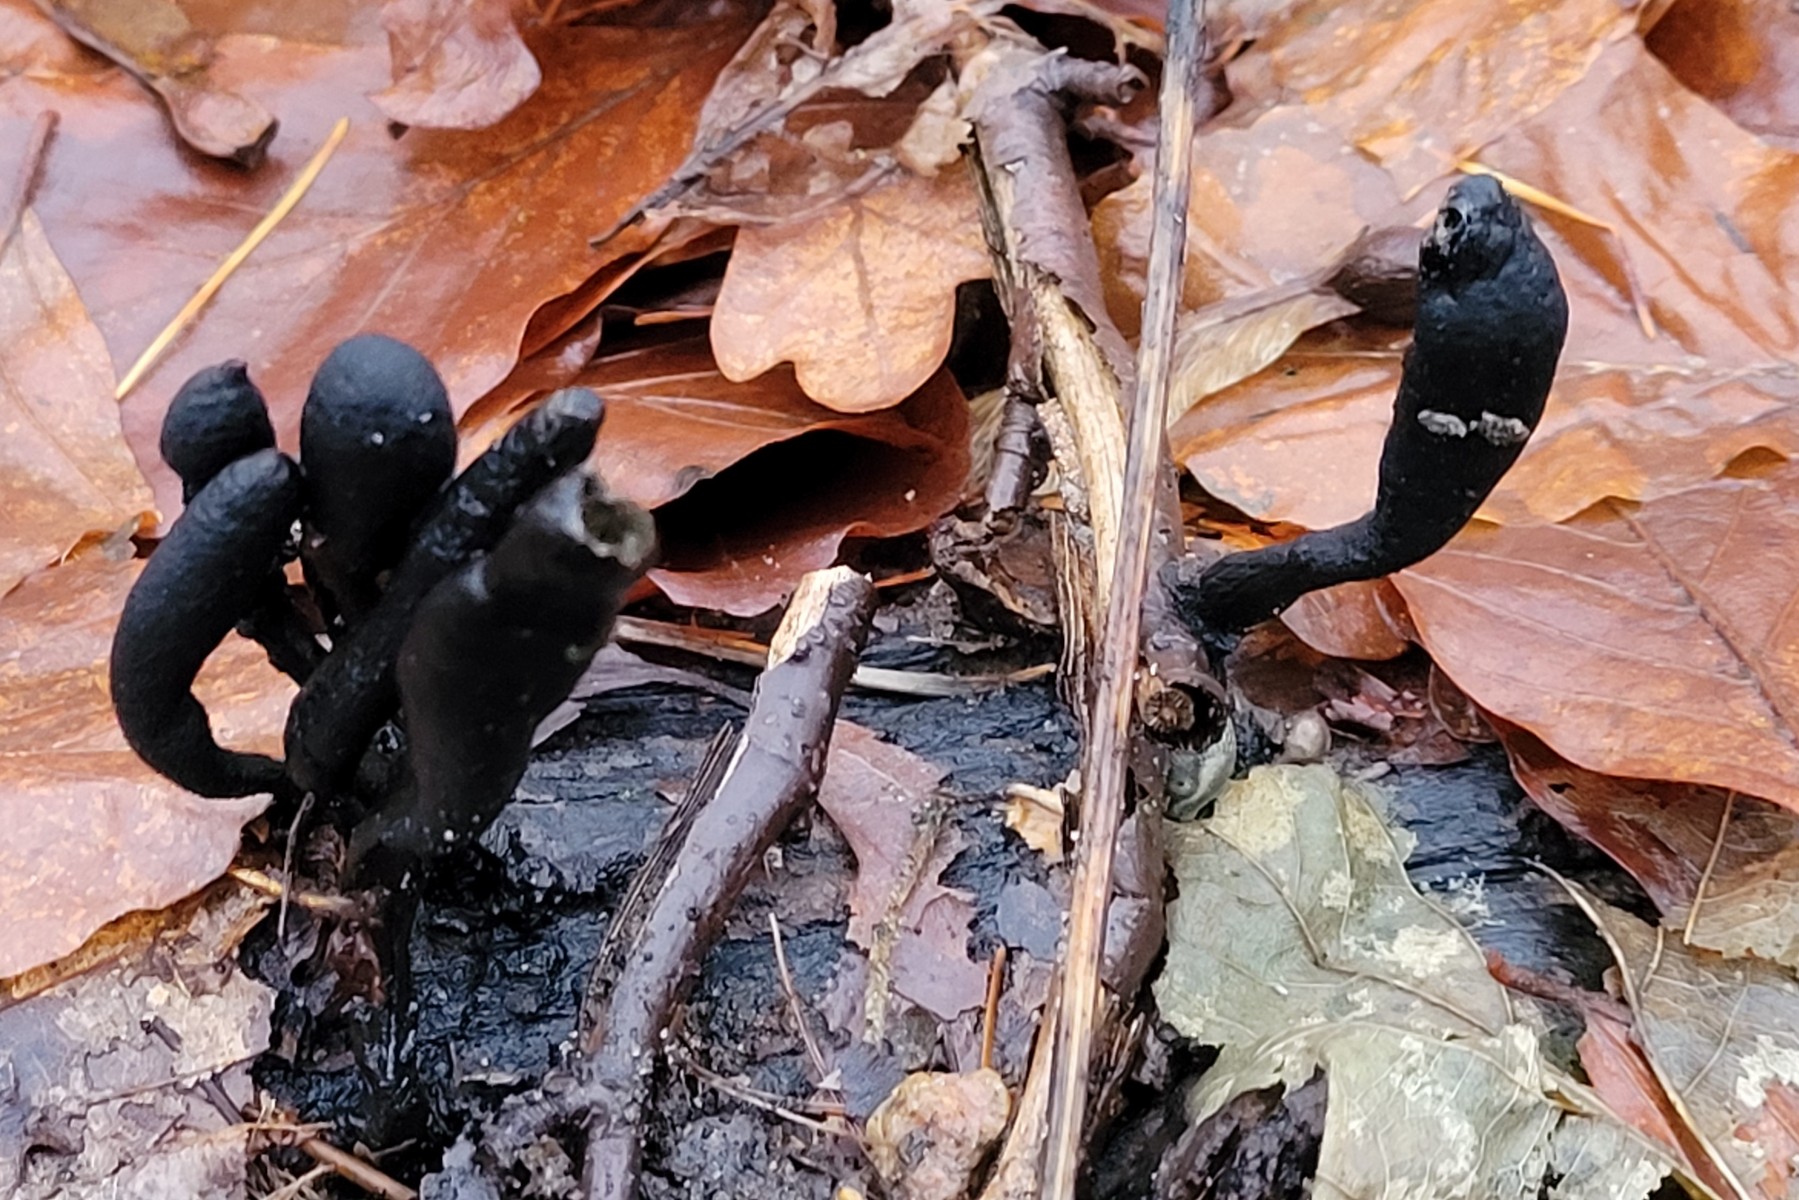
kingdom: Fungi
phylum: Ascomycota
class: Sordariomycetes
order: Xylariales
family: Xylariaceae
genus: Xylaria
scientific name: Xylaria longipes
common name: slank stødsvamp
